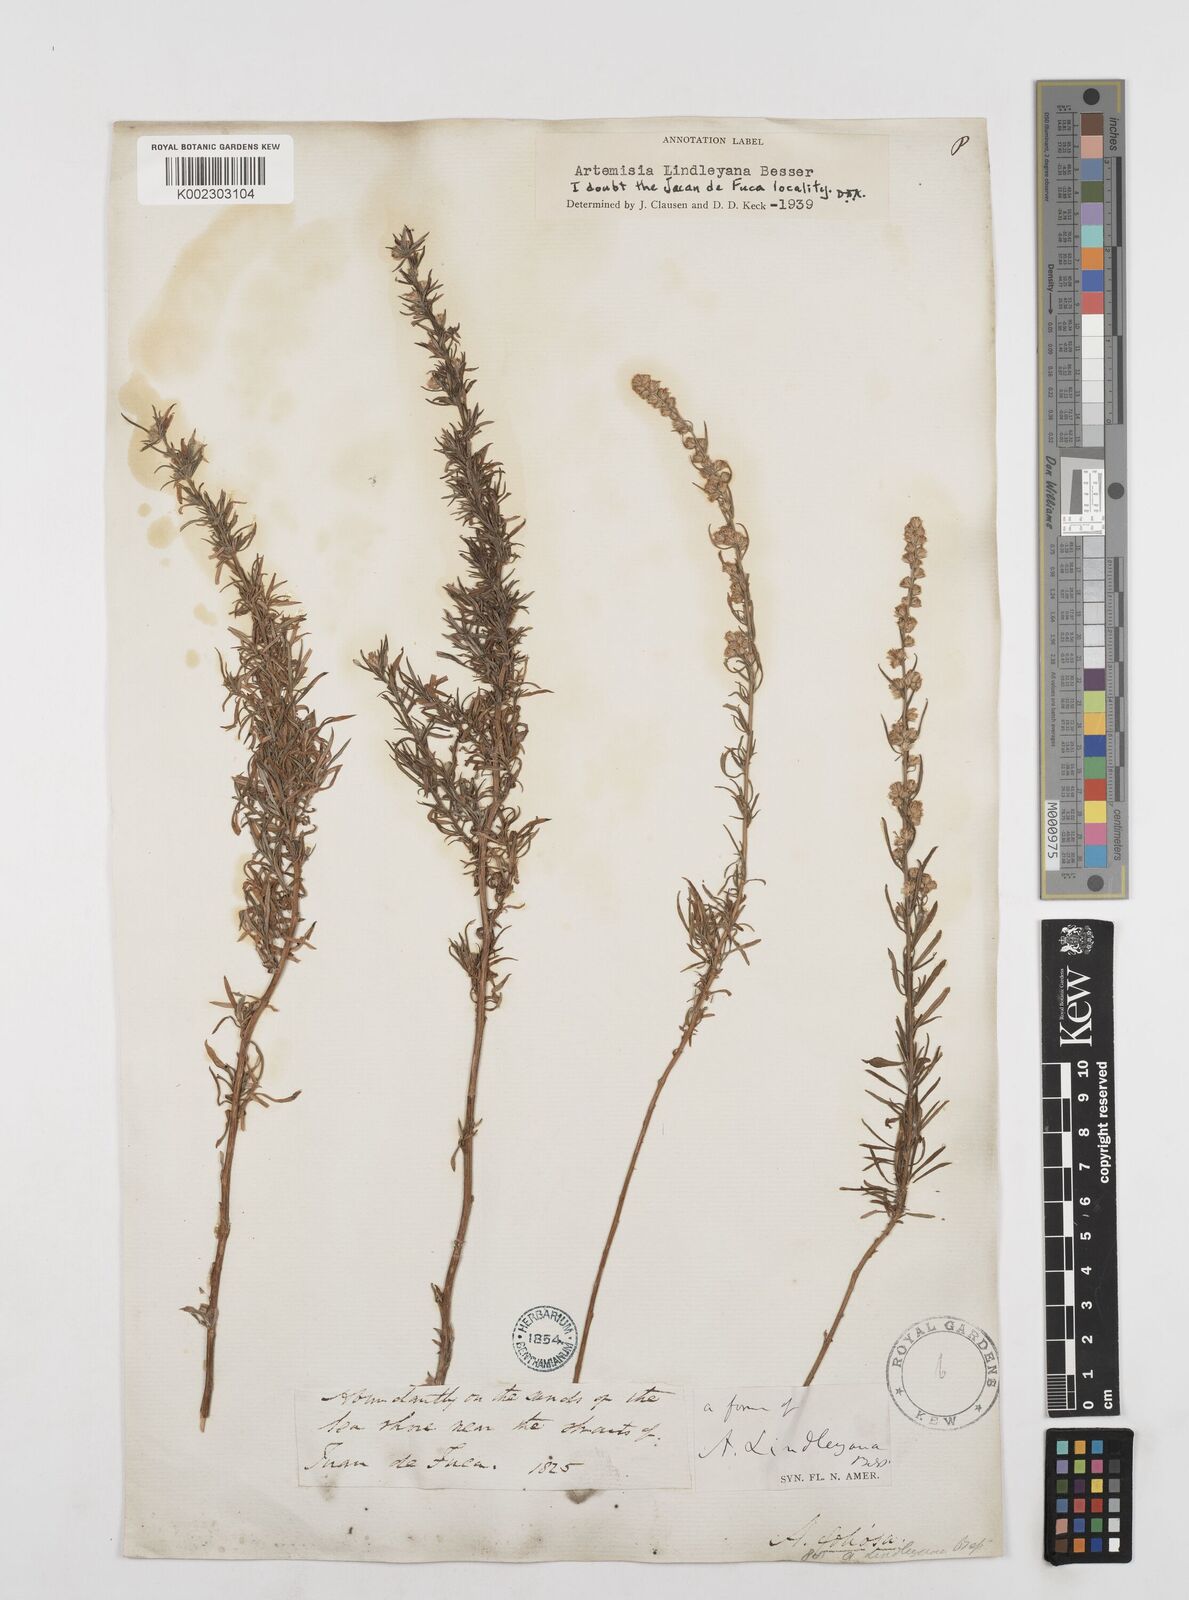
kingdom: Plantae
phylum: Tracheophyta
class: Magnoliopsida
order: Asterales
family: Asteraceae
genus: Artemisia
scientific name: Artemisia ludoviciana
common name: Western mugwort
